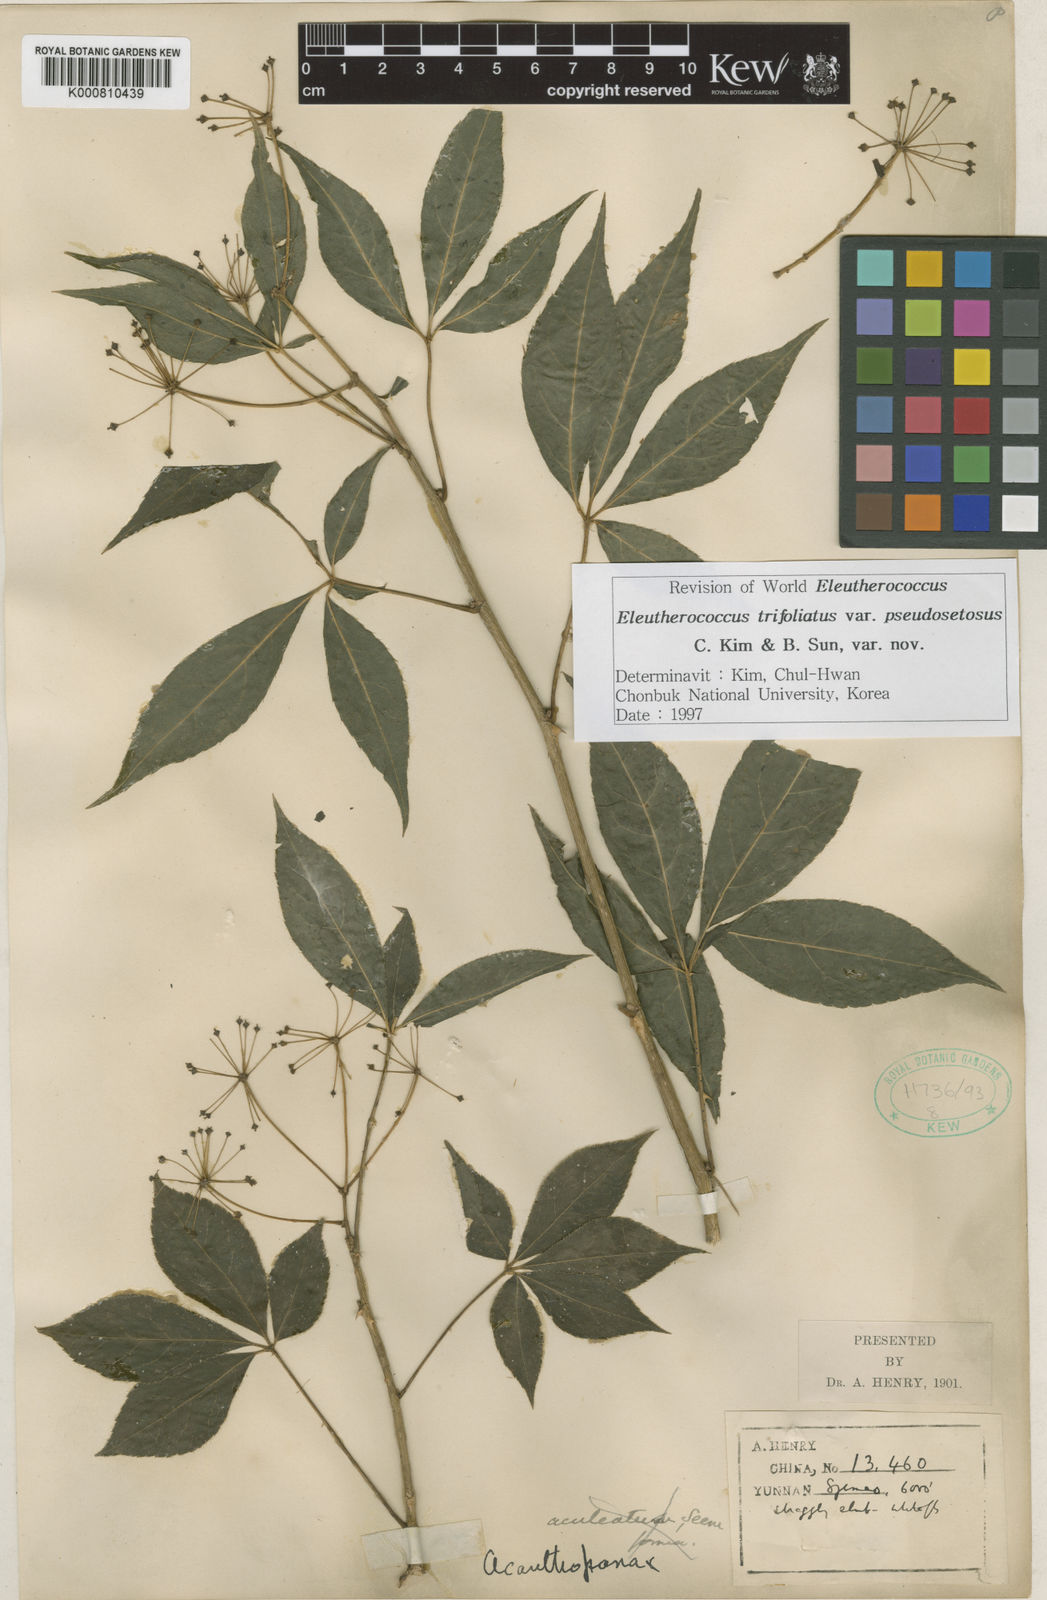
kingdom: Plantae
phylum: Tracheophyta
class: Magnoliopsida
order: Apiales
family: Araliaceae
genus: Eleutherococcus
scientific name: Eleutherococcus trifoliatus
